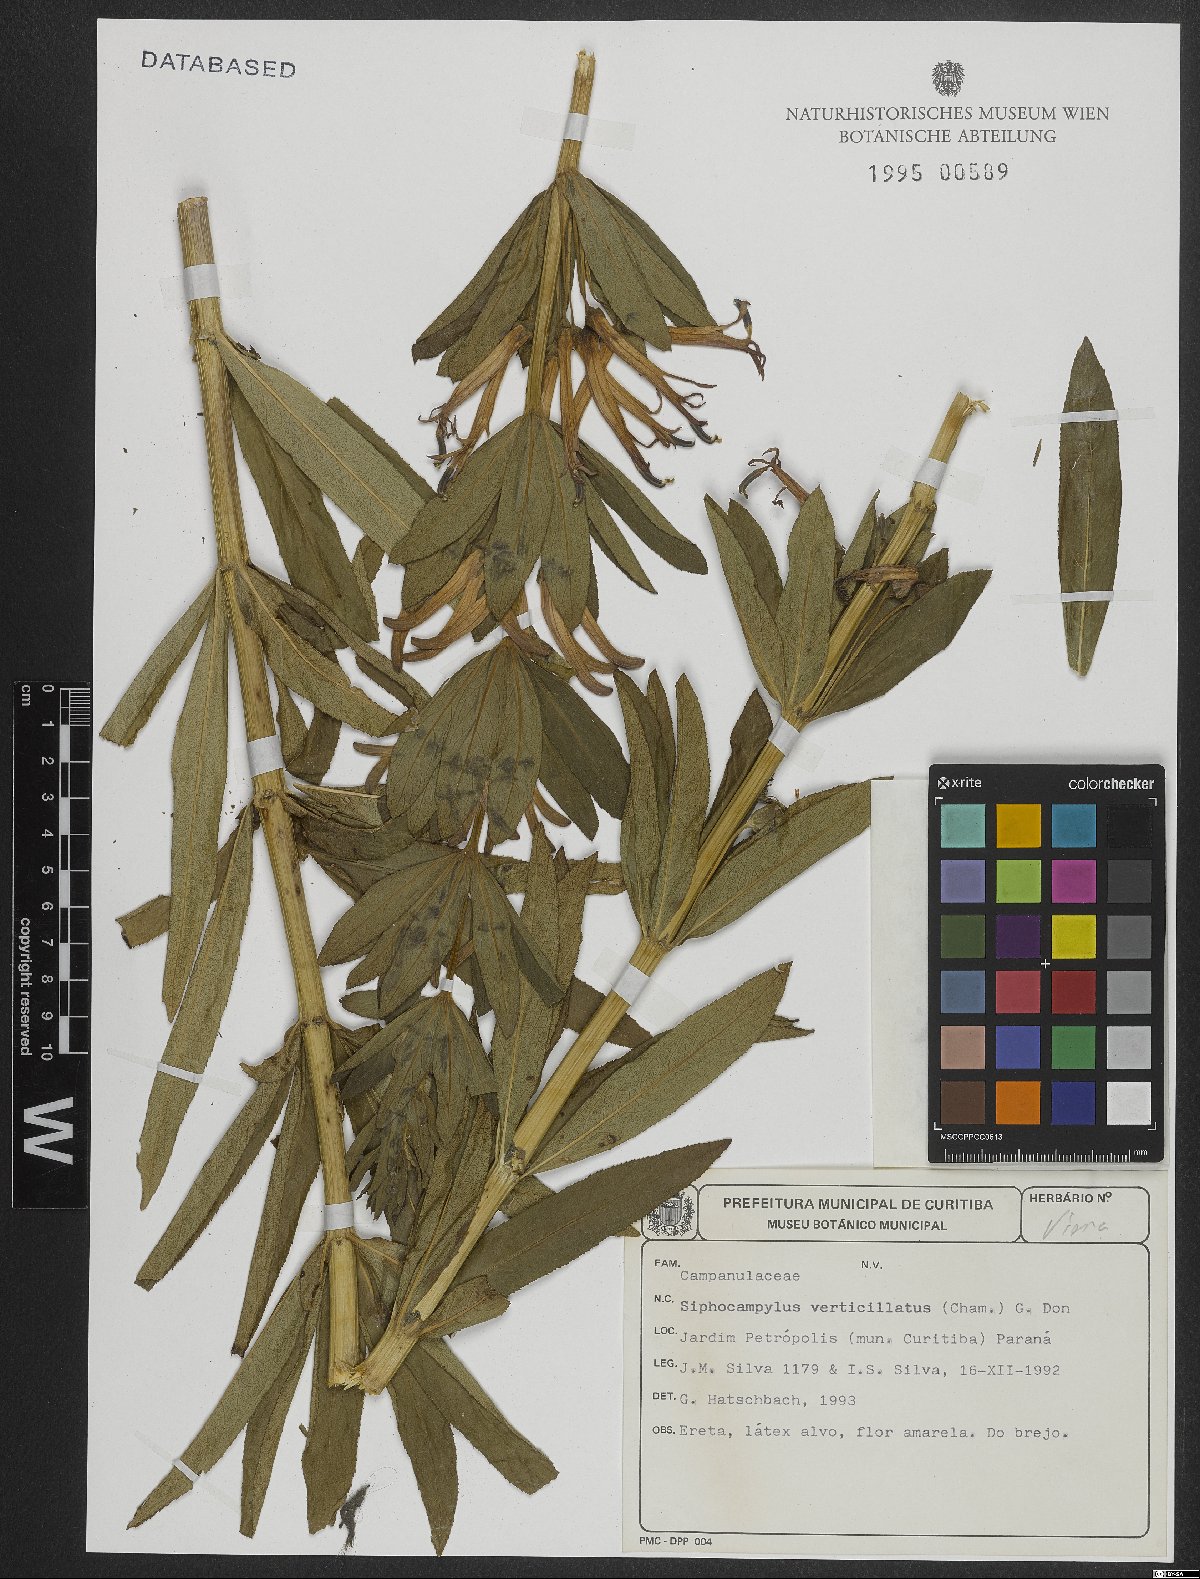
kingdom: Plantae
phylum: Tracheophyta
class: Magnoliopsida
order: Asterales
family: Campanulaceae
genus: Siphocampylus
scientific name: Siphocampylus verticillatus
